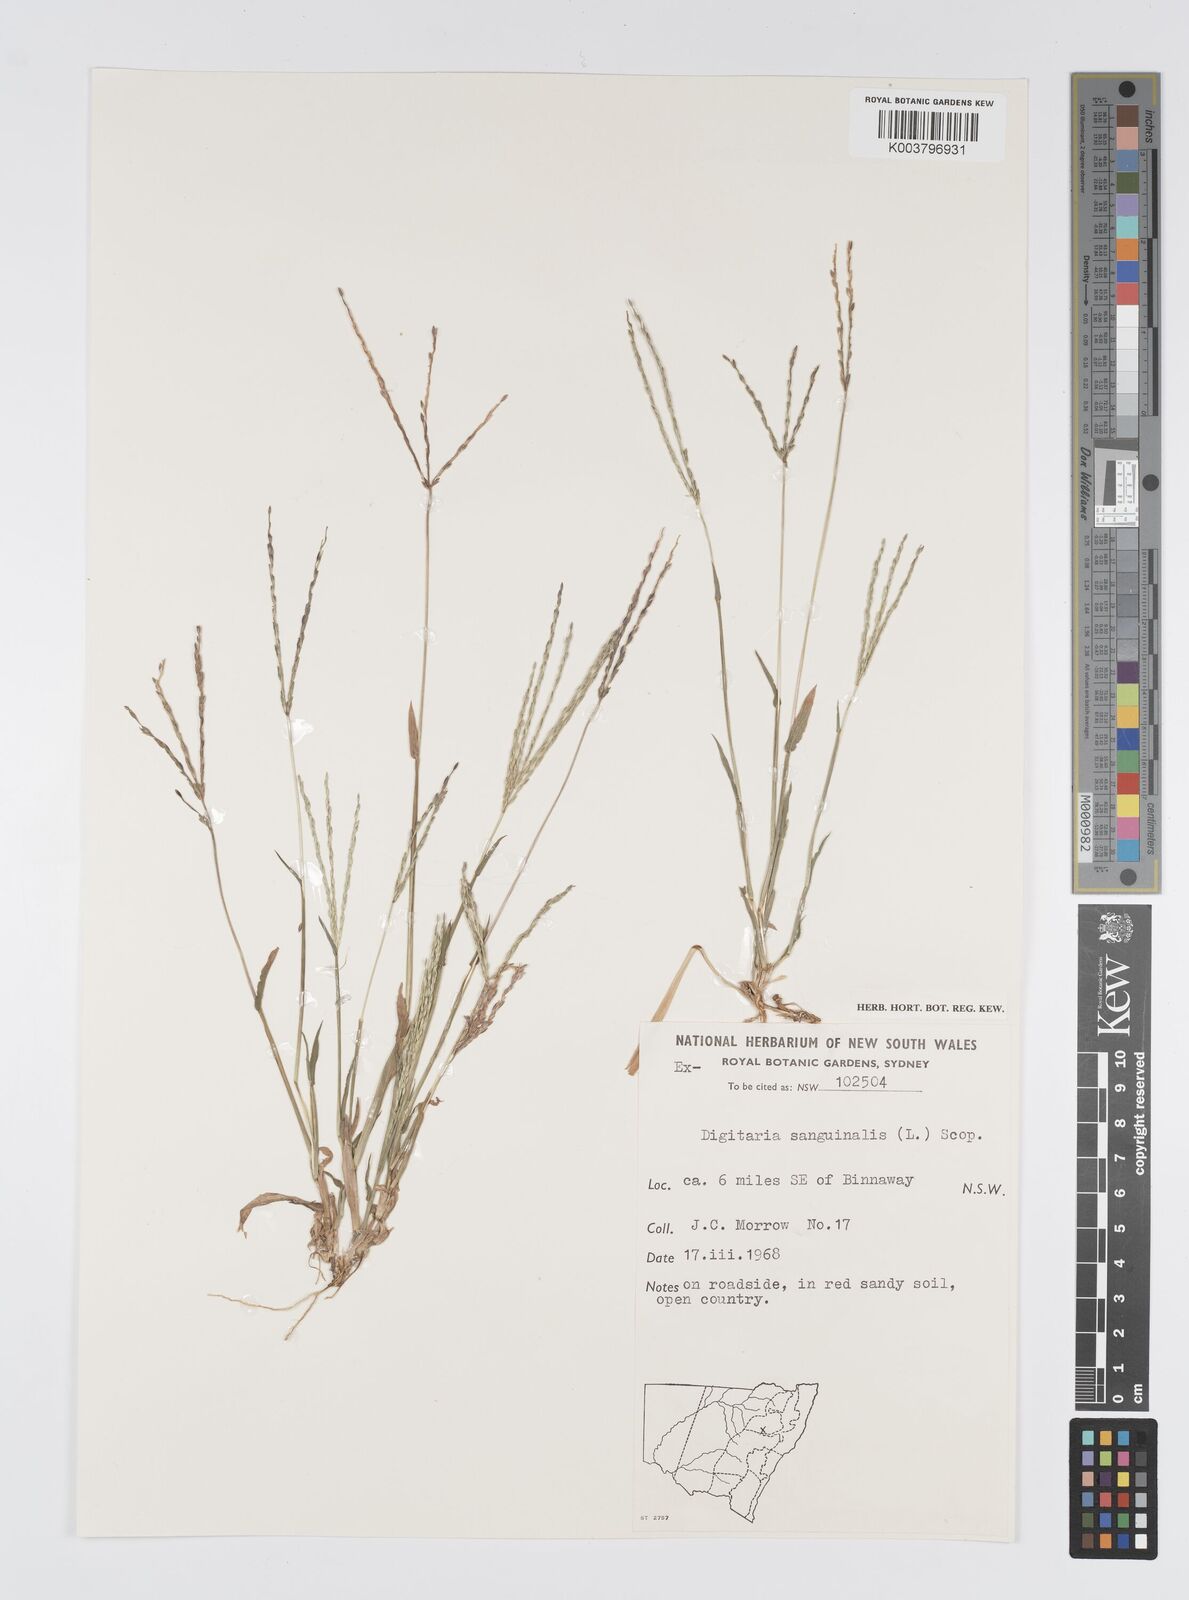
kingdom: Plantae
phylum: Tracheophyta
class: Liliopsida
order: Poales
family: Poaceae
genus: Digitaria
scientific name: Digitaria sanguinalis
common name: Hairy crabgrass
